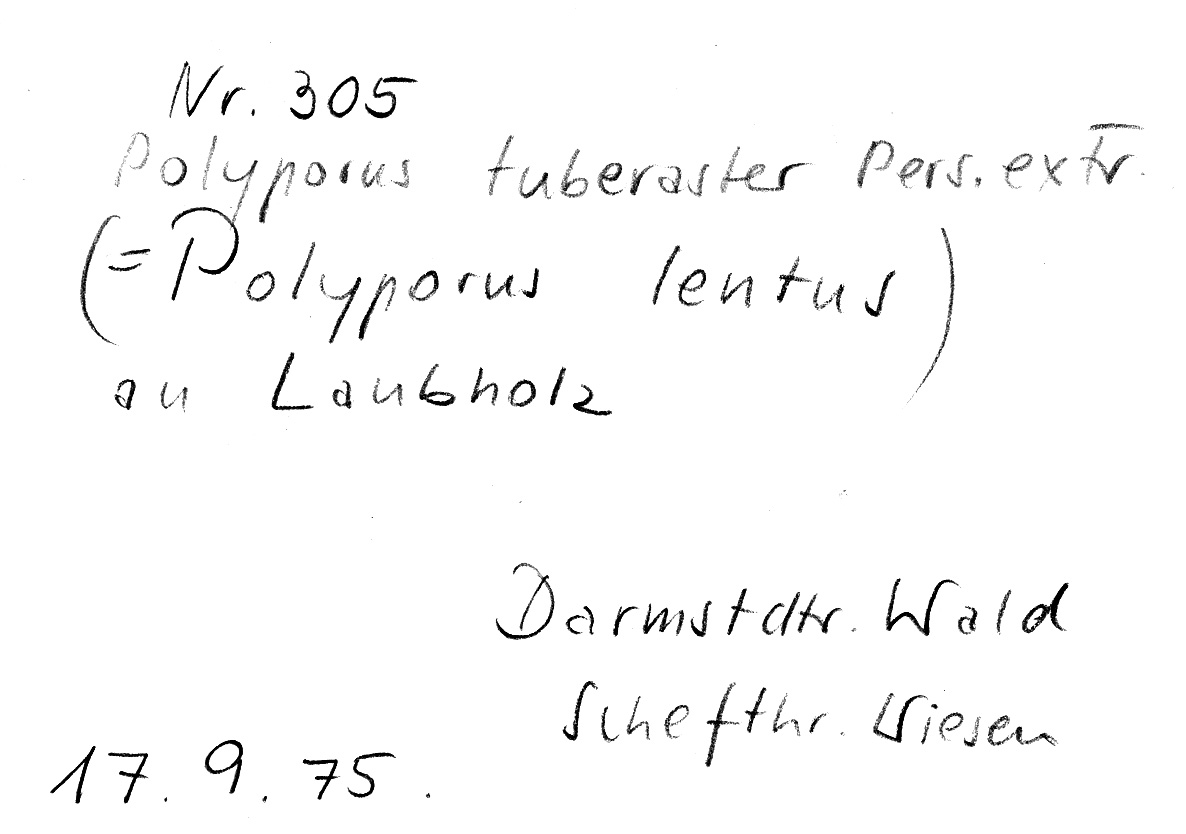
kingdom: Fungi
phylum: Basidiomycota
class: Agaricomycetes
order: Polyporales
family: Polyporaceae
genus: Polyporus
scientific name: Polyporus tuberaster
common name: Tuberous polypore
